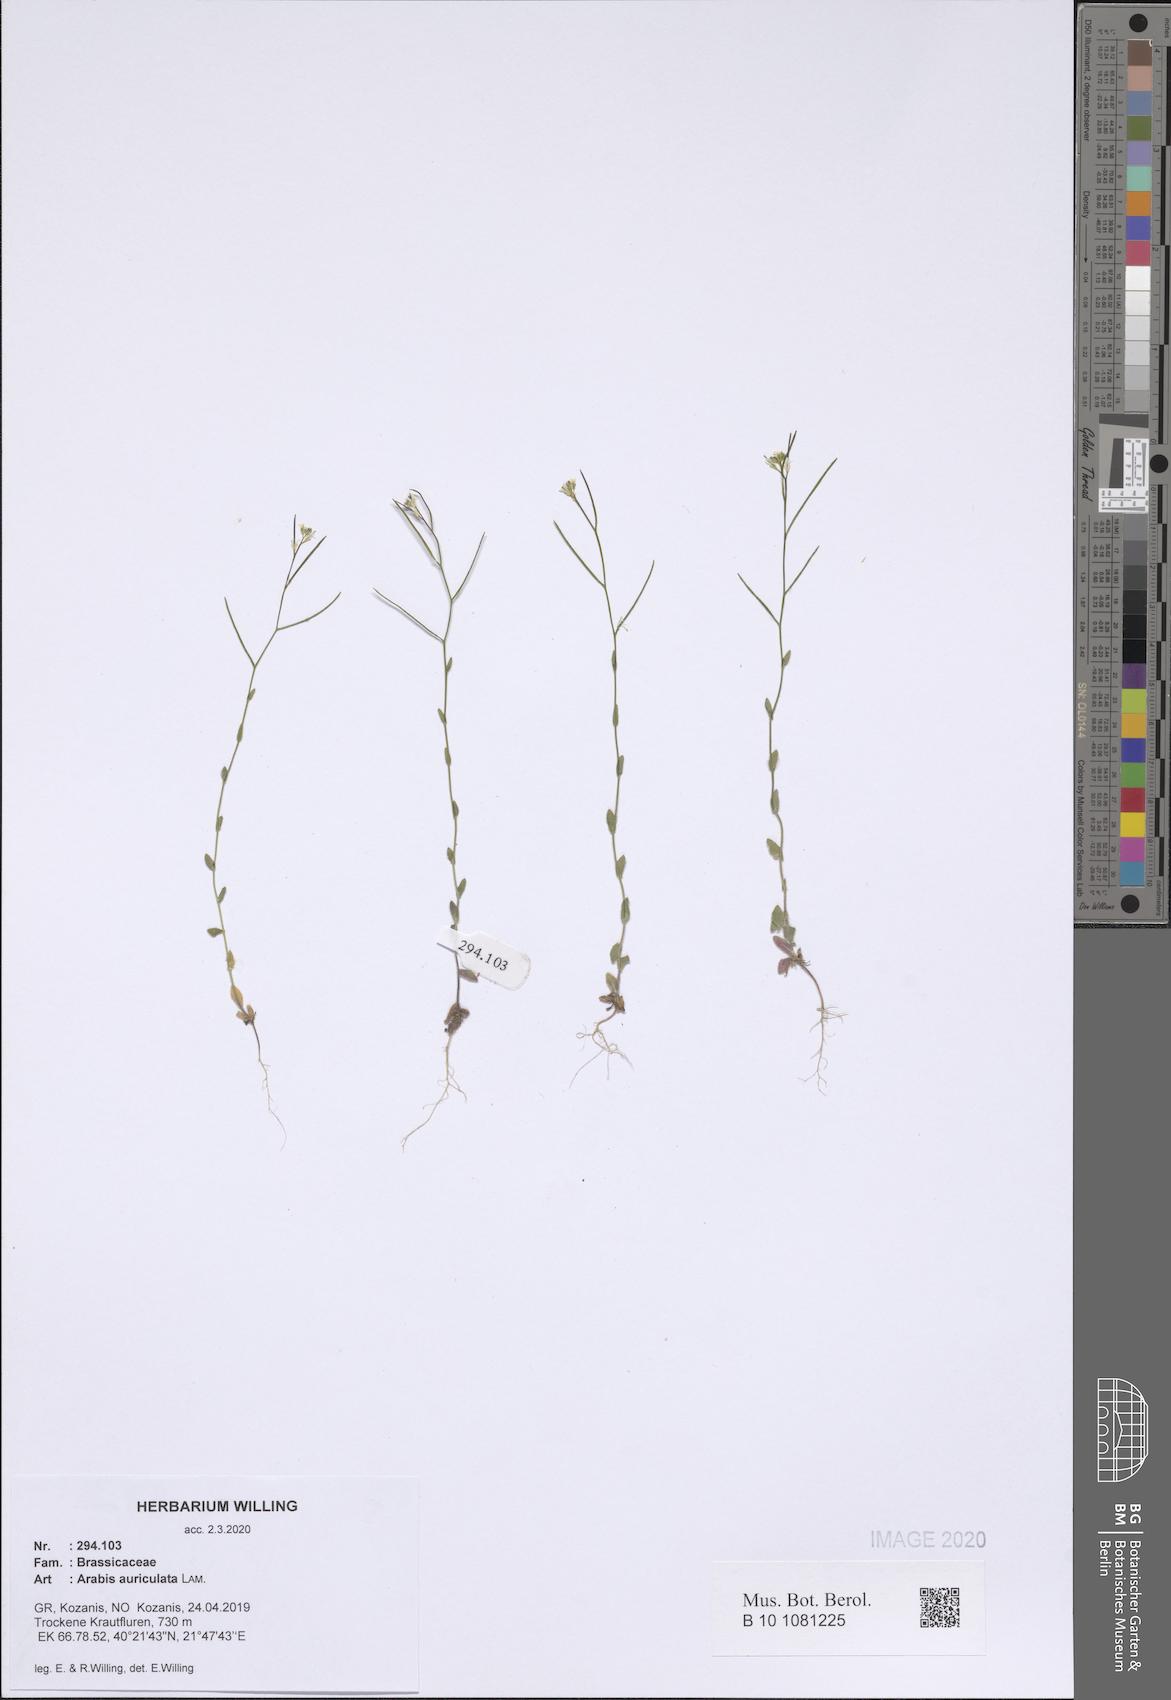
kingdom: Plantae
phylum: Tracheophyta
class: Magnoliopsida
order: Brassicales
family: Brassicaceae
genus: Arabis
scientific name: Arabis auriculata
